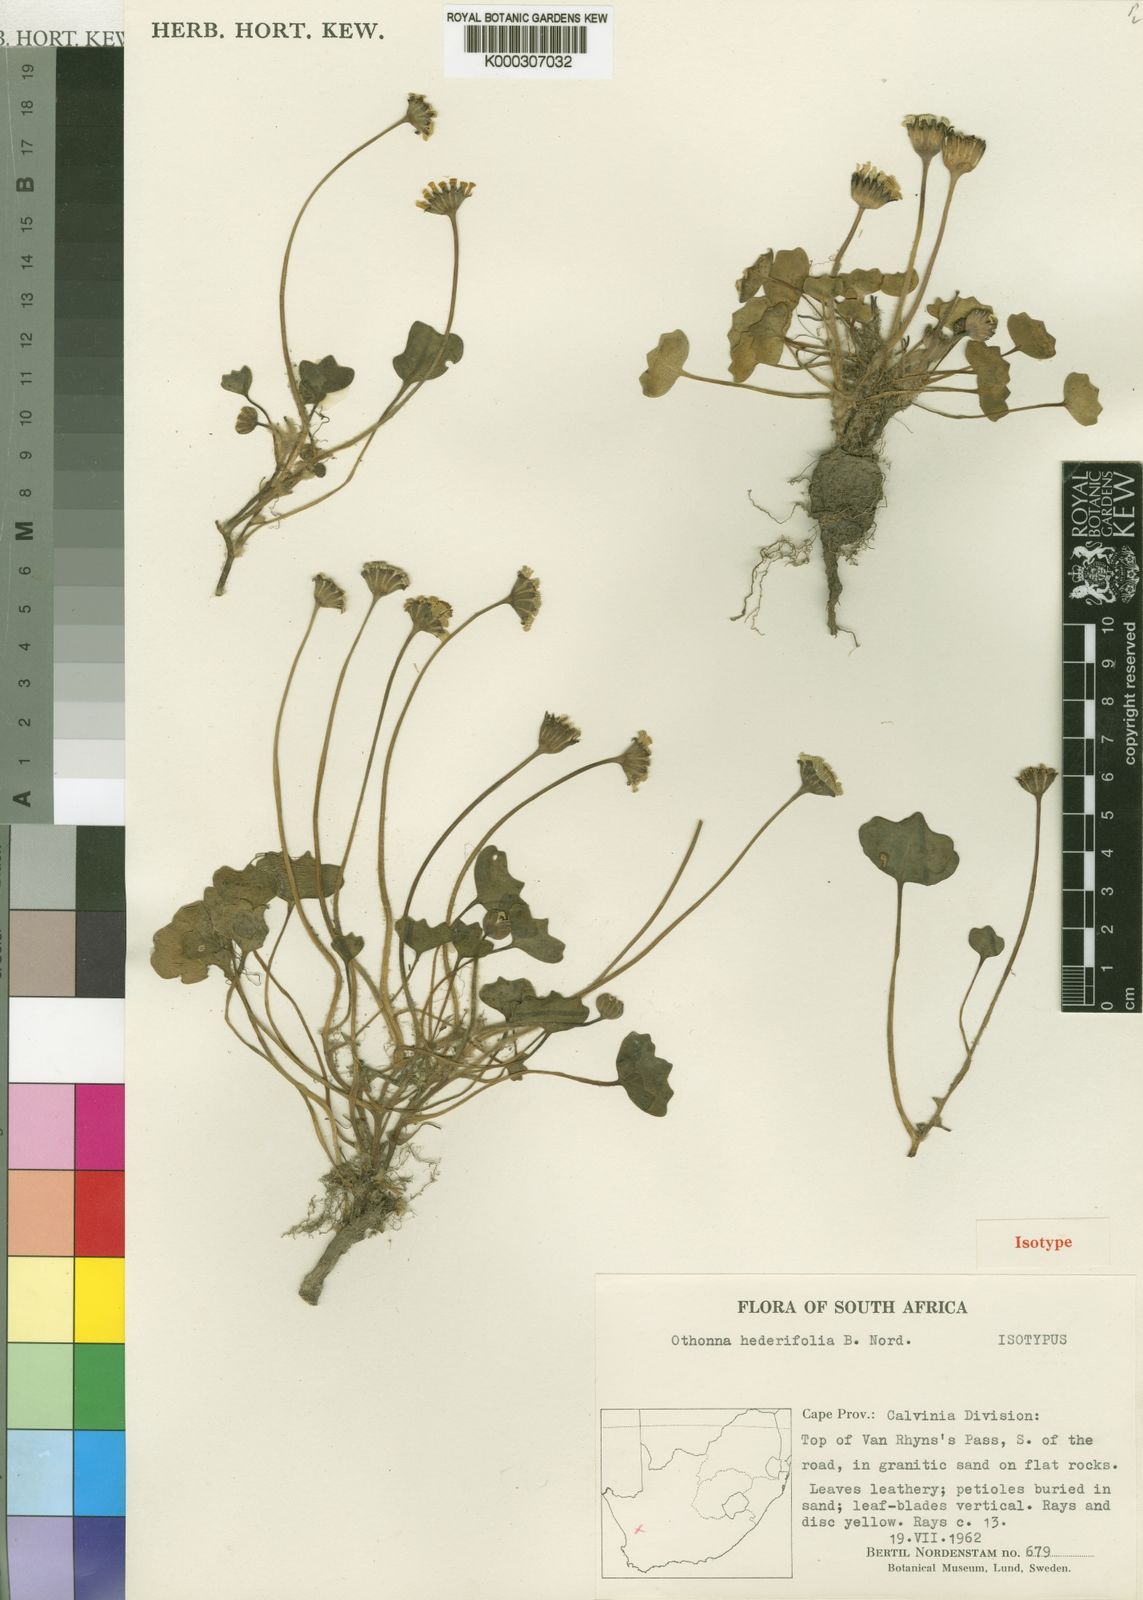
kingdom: Plantae
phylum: Tracheophyta
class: Magnoliopsida
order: Asterales
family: Asteraceae
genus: Othonna
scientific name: Othonna hederifolia
